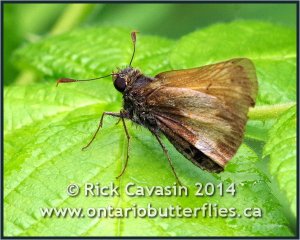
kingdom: Animalia
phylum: Arthropoda
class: Insecta
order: Lepidoptera
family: Hesperiidae
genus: Lon
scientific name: Lon hobomok
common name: Hobomok Skipper
